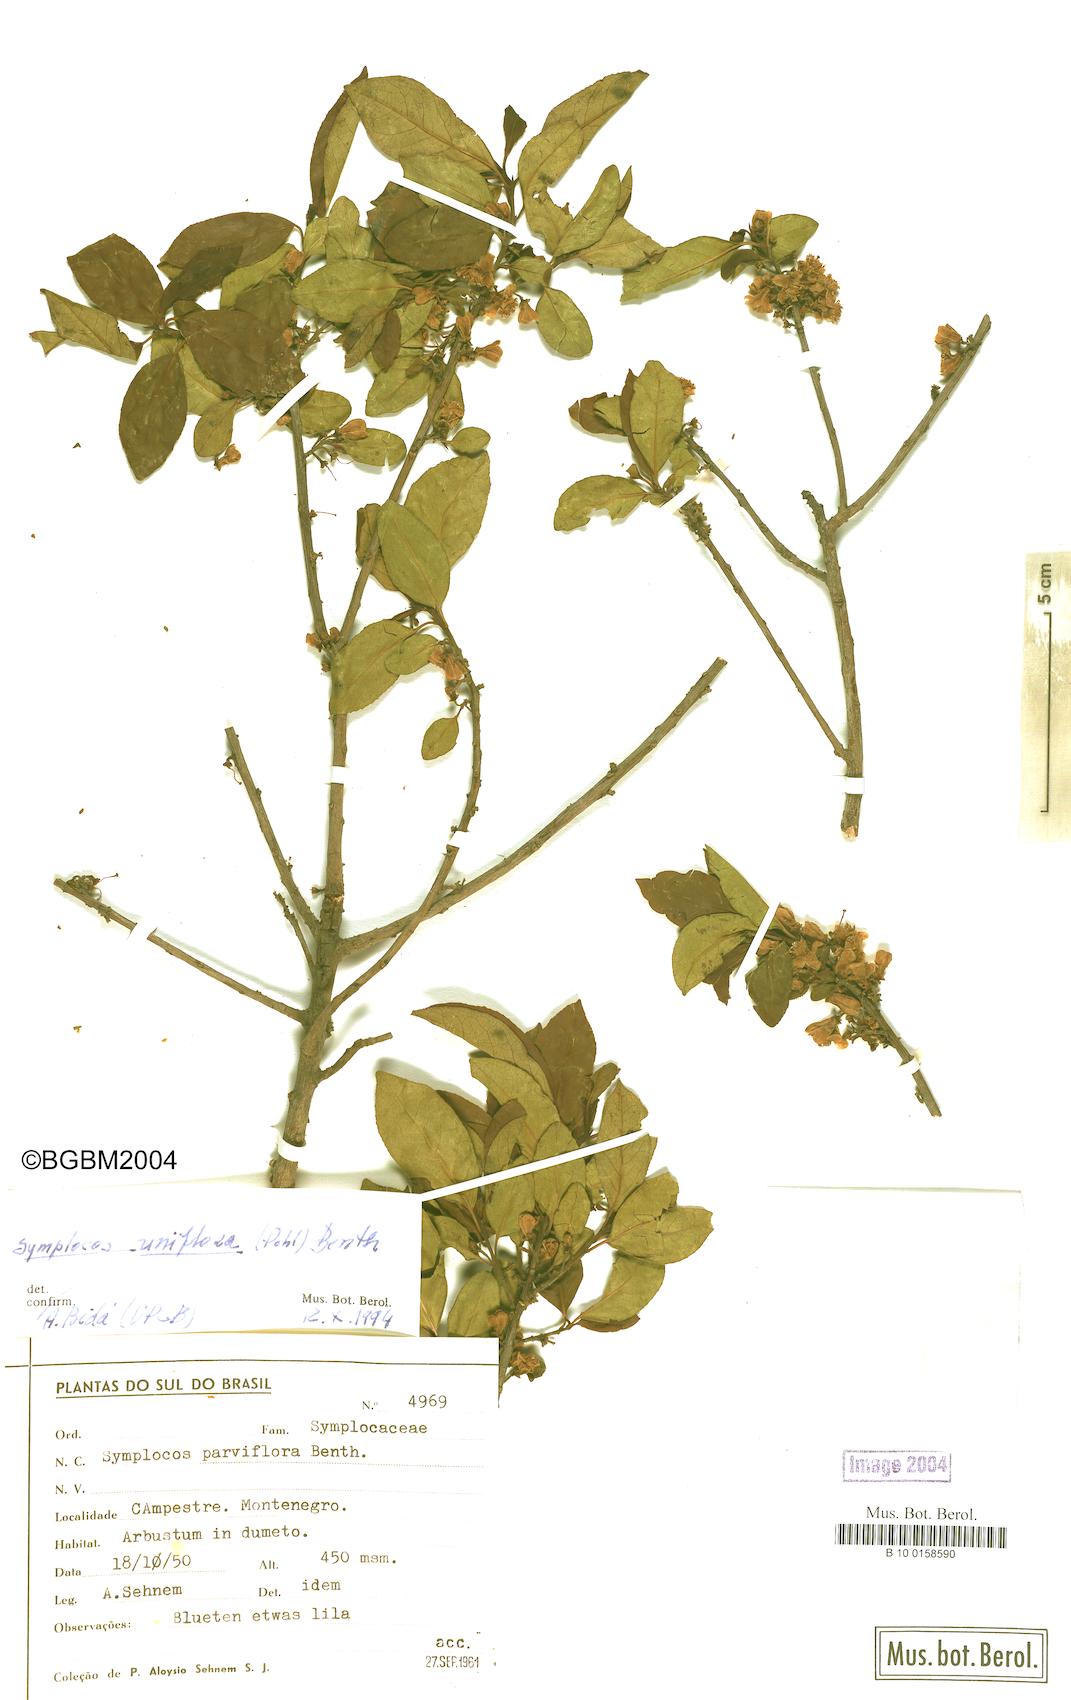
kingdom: Plantae
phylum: Tracheophyta
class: Magnoliopsida
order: Ericales
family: Symplocaceae
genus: Symplocos
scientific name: Symplocos uniflora
